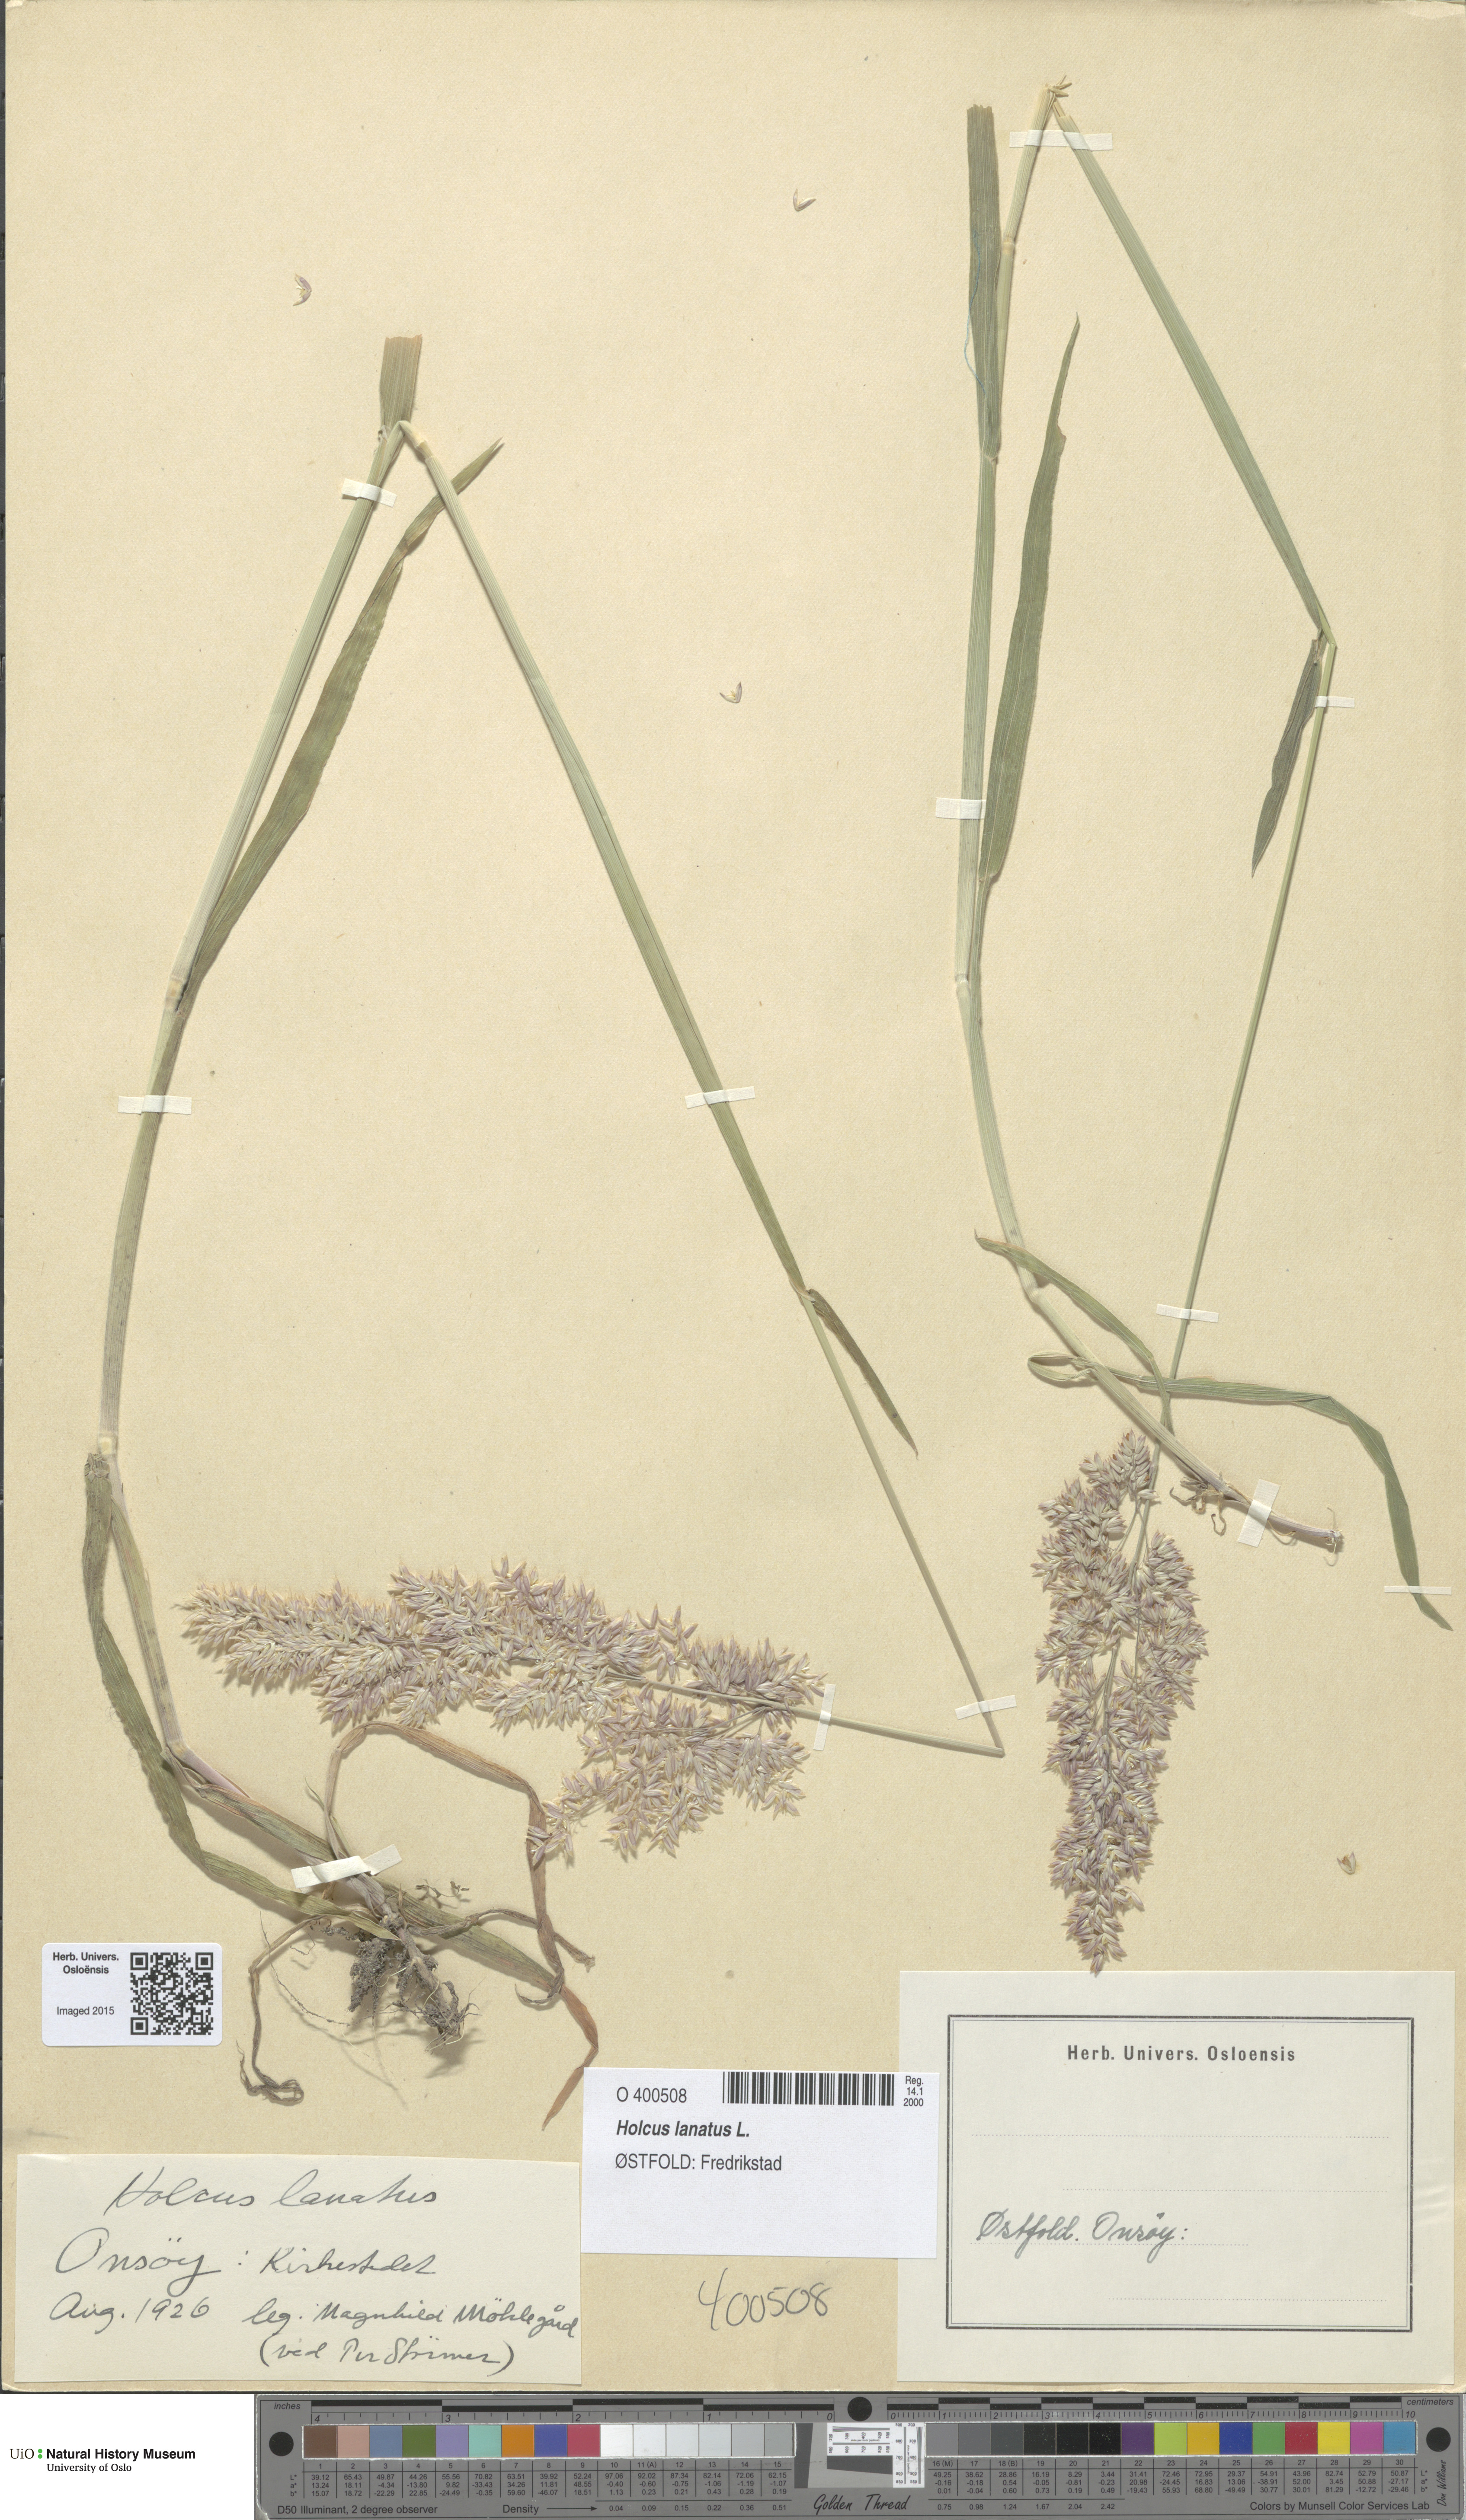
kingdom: Plantae
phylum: Tracheophyta
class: Liliopsida
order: Poales
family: Poaceae
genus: Holcus
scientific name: Holcus lanatus
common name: Yorkshire-fog
